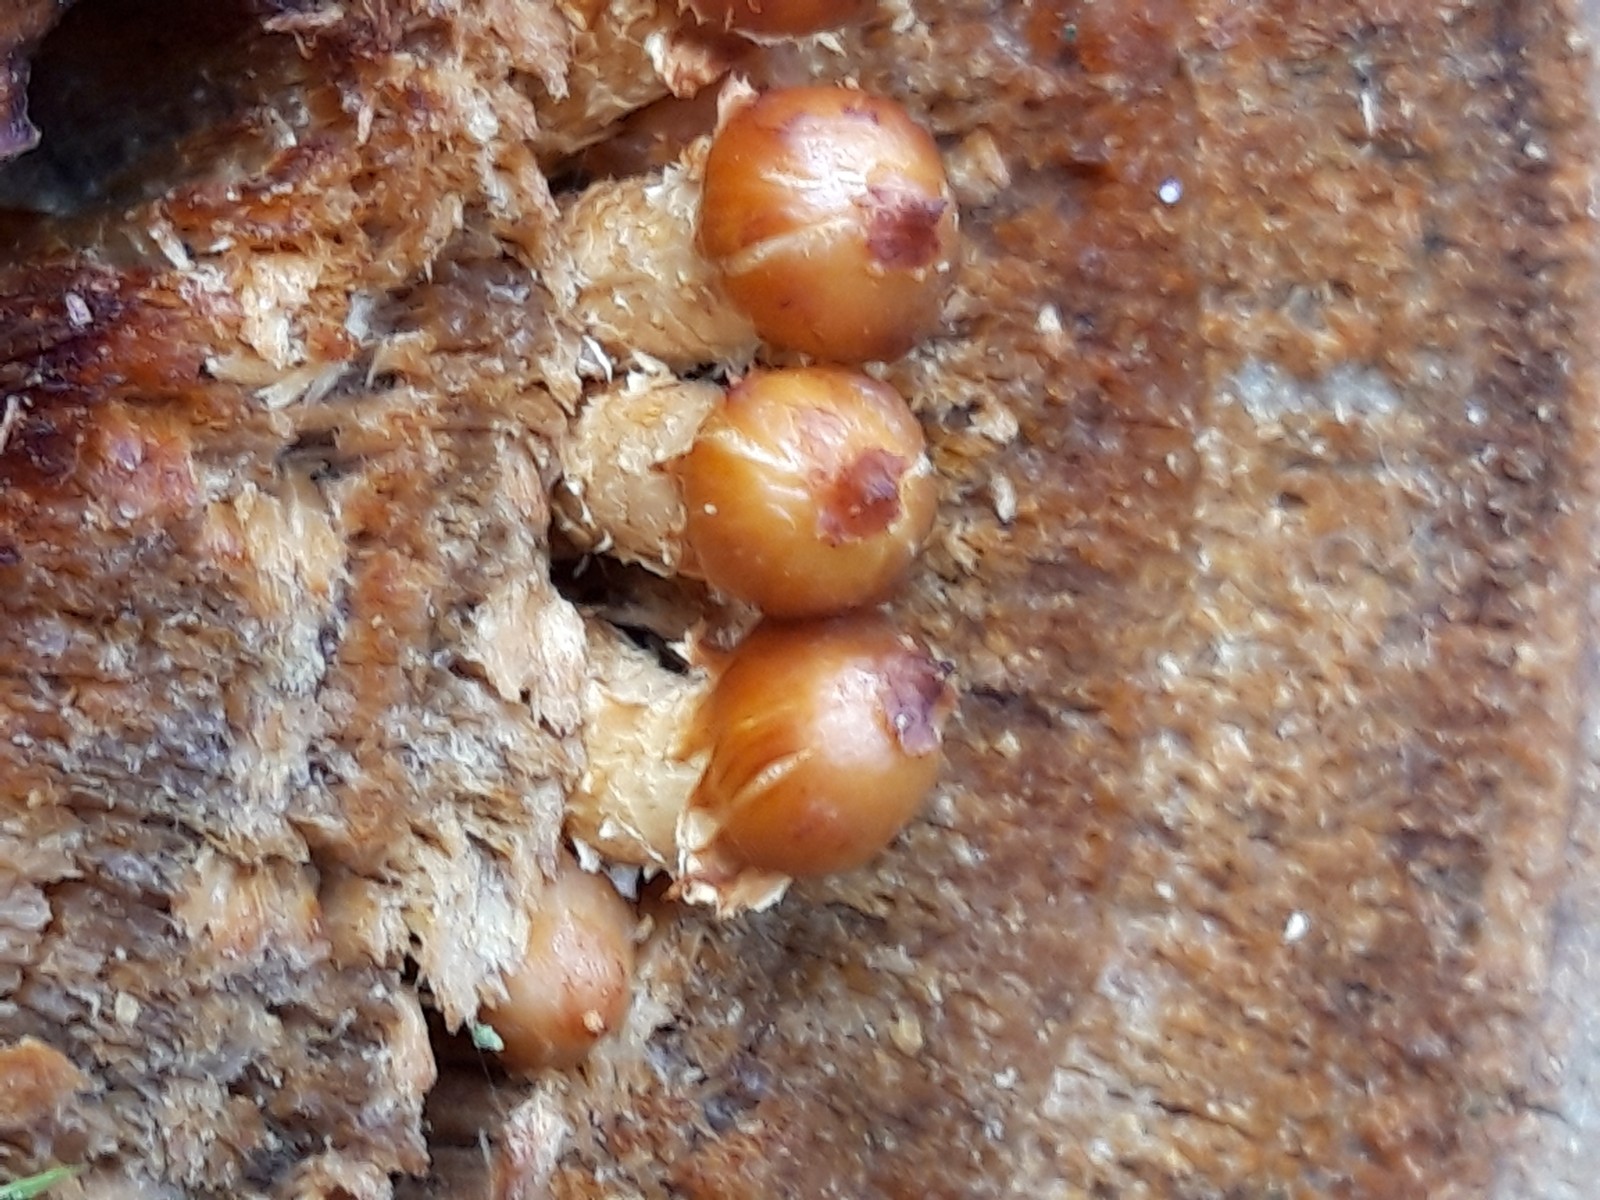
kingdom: Fungi
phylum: Basidiomycota
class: Agaricomycetes
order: Agaricales
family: Strophariaceae
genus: Pholiota
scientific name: Pholiota
